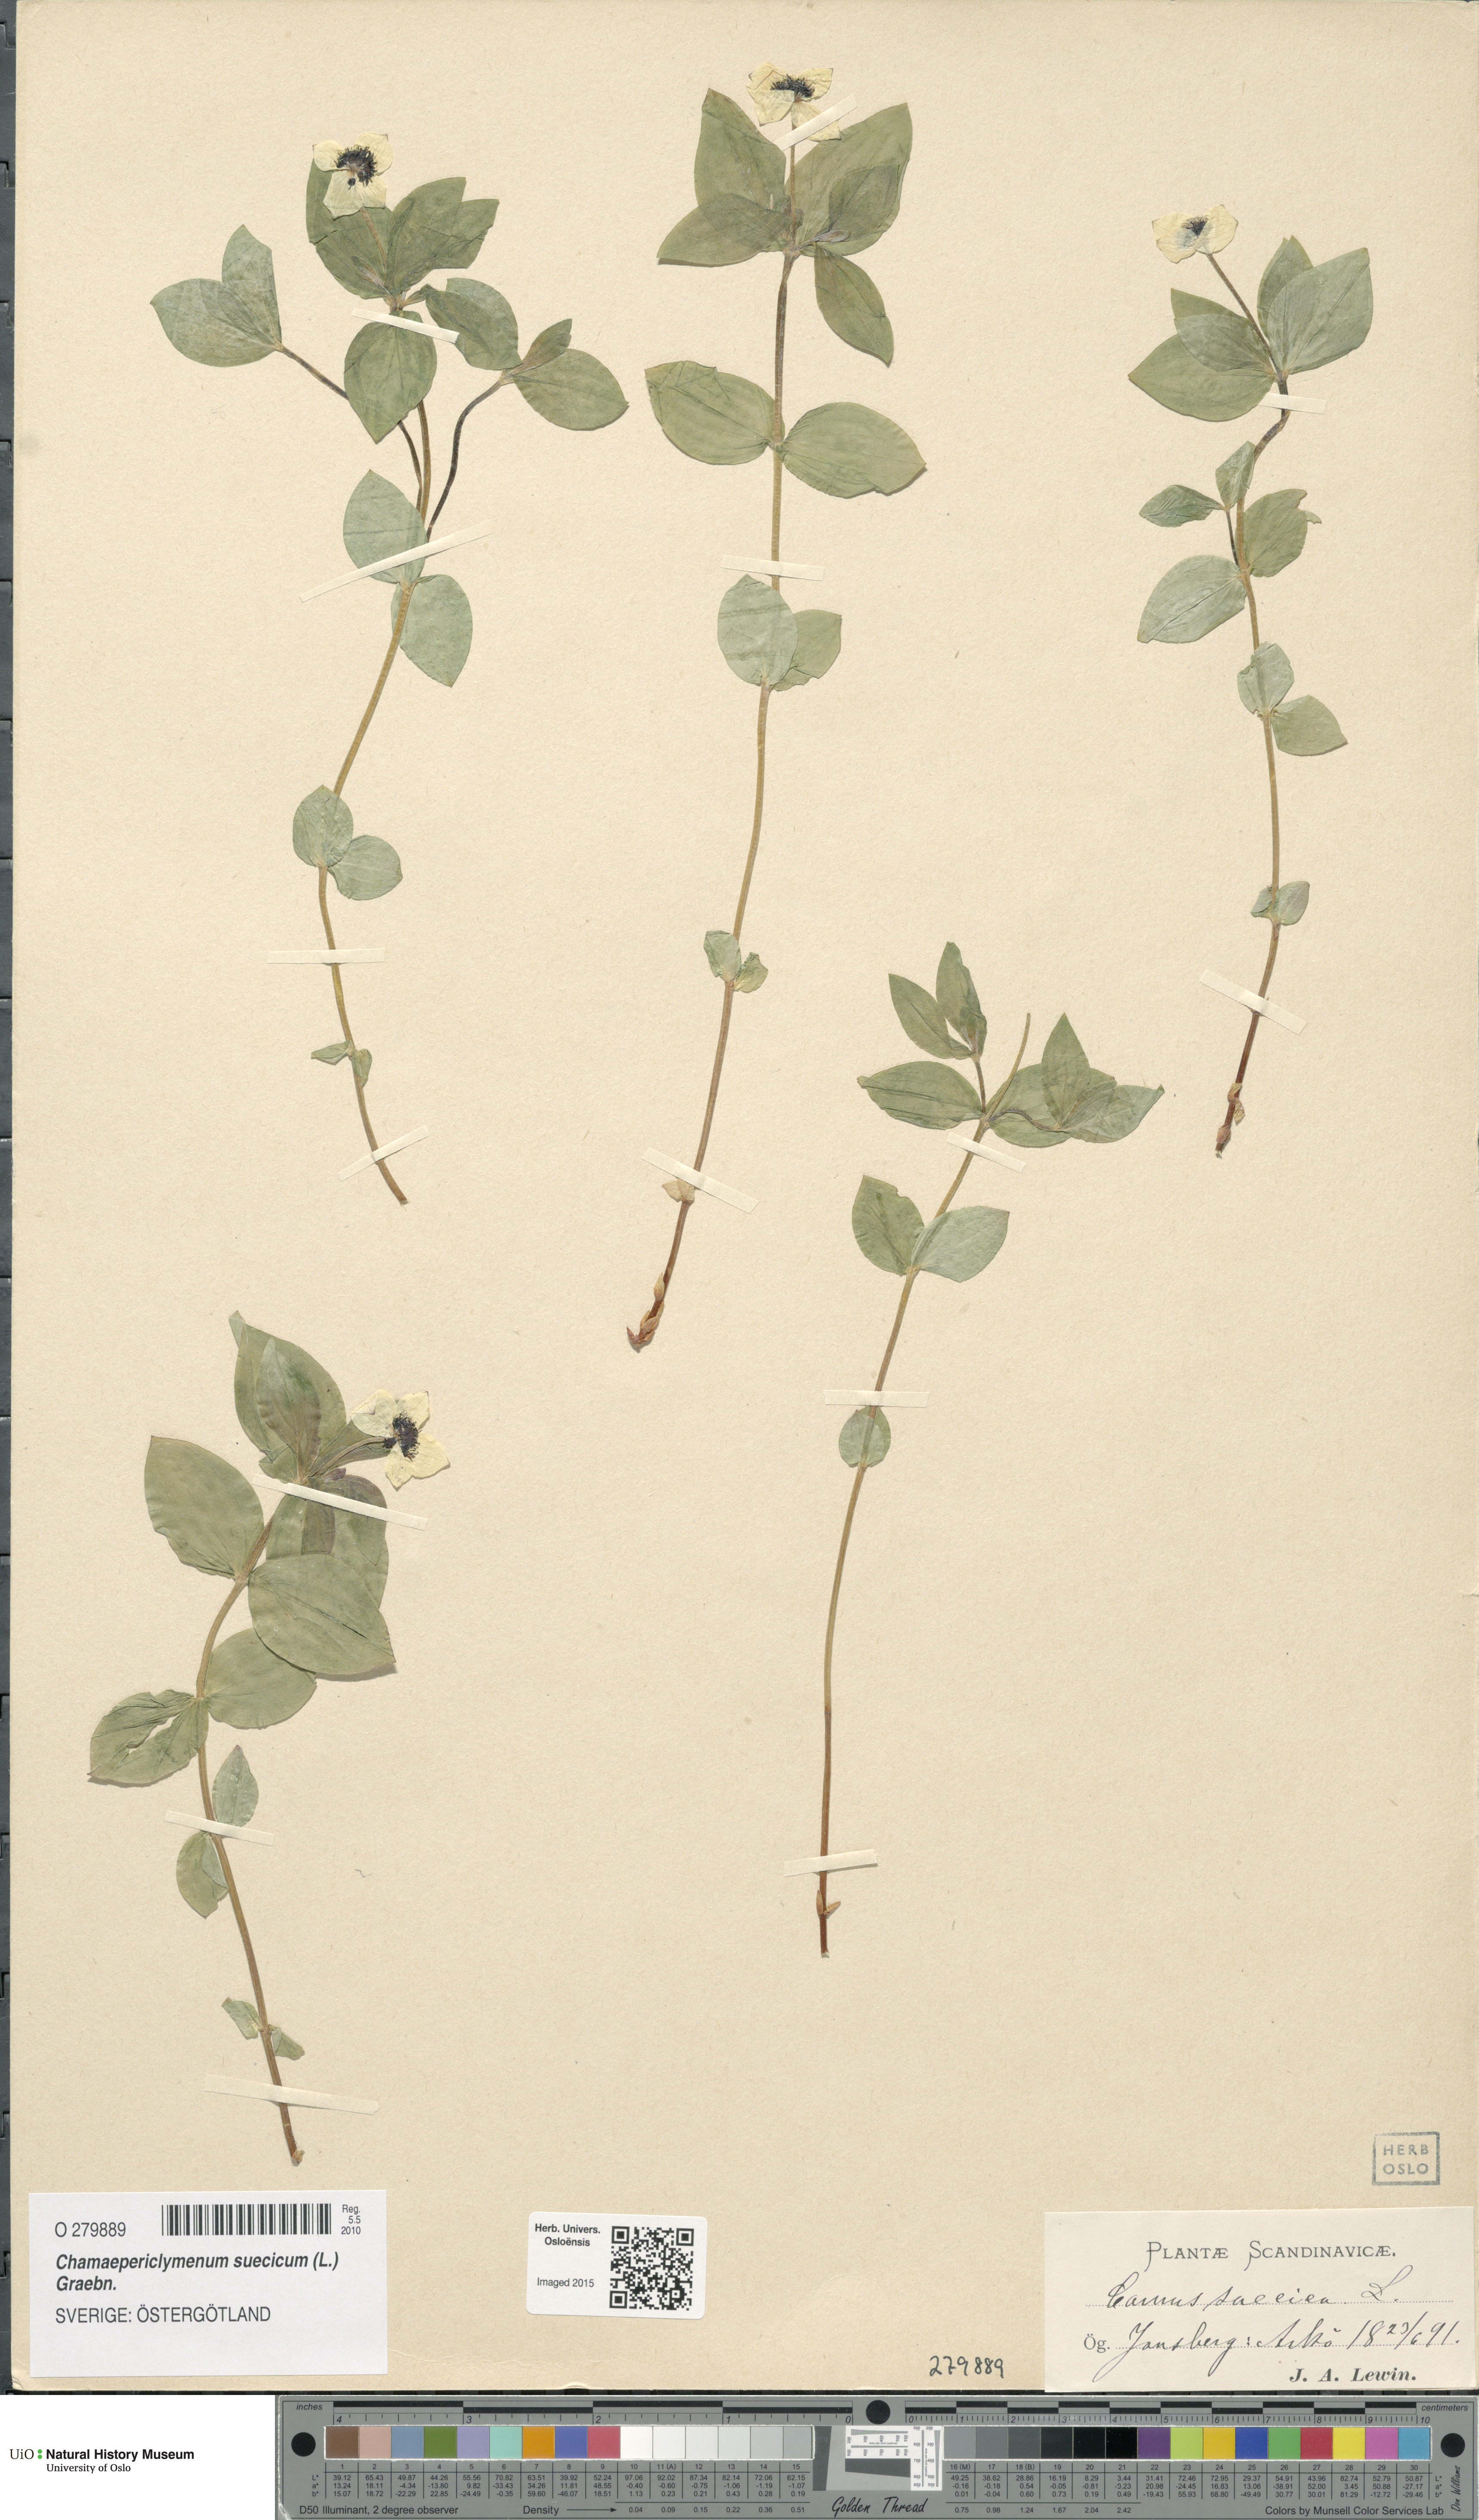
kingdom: Plantae
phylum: Tracheophyta
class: Magnoliopsida
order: Cornales
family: Cornaceae
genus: Cornus
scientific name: Cornus suecica
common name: Dwarf cornel
